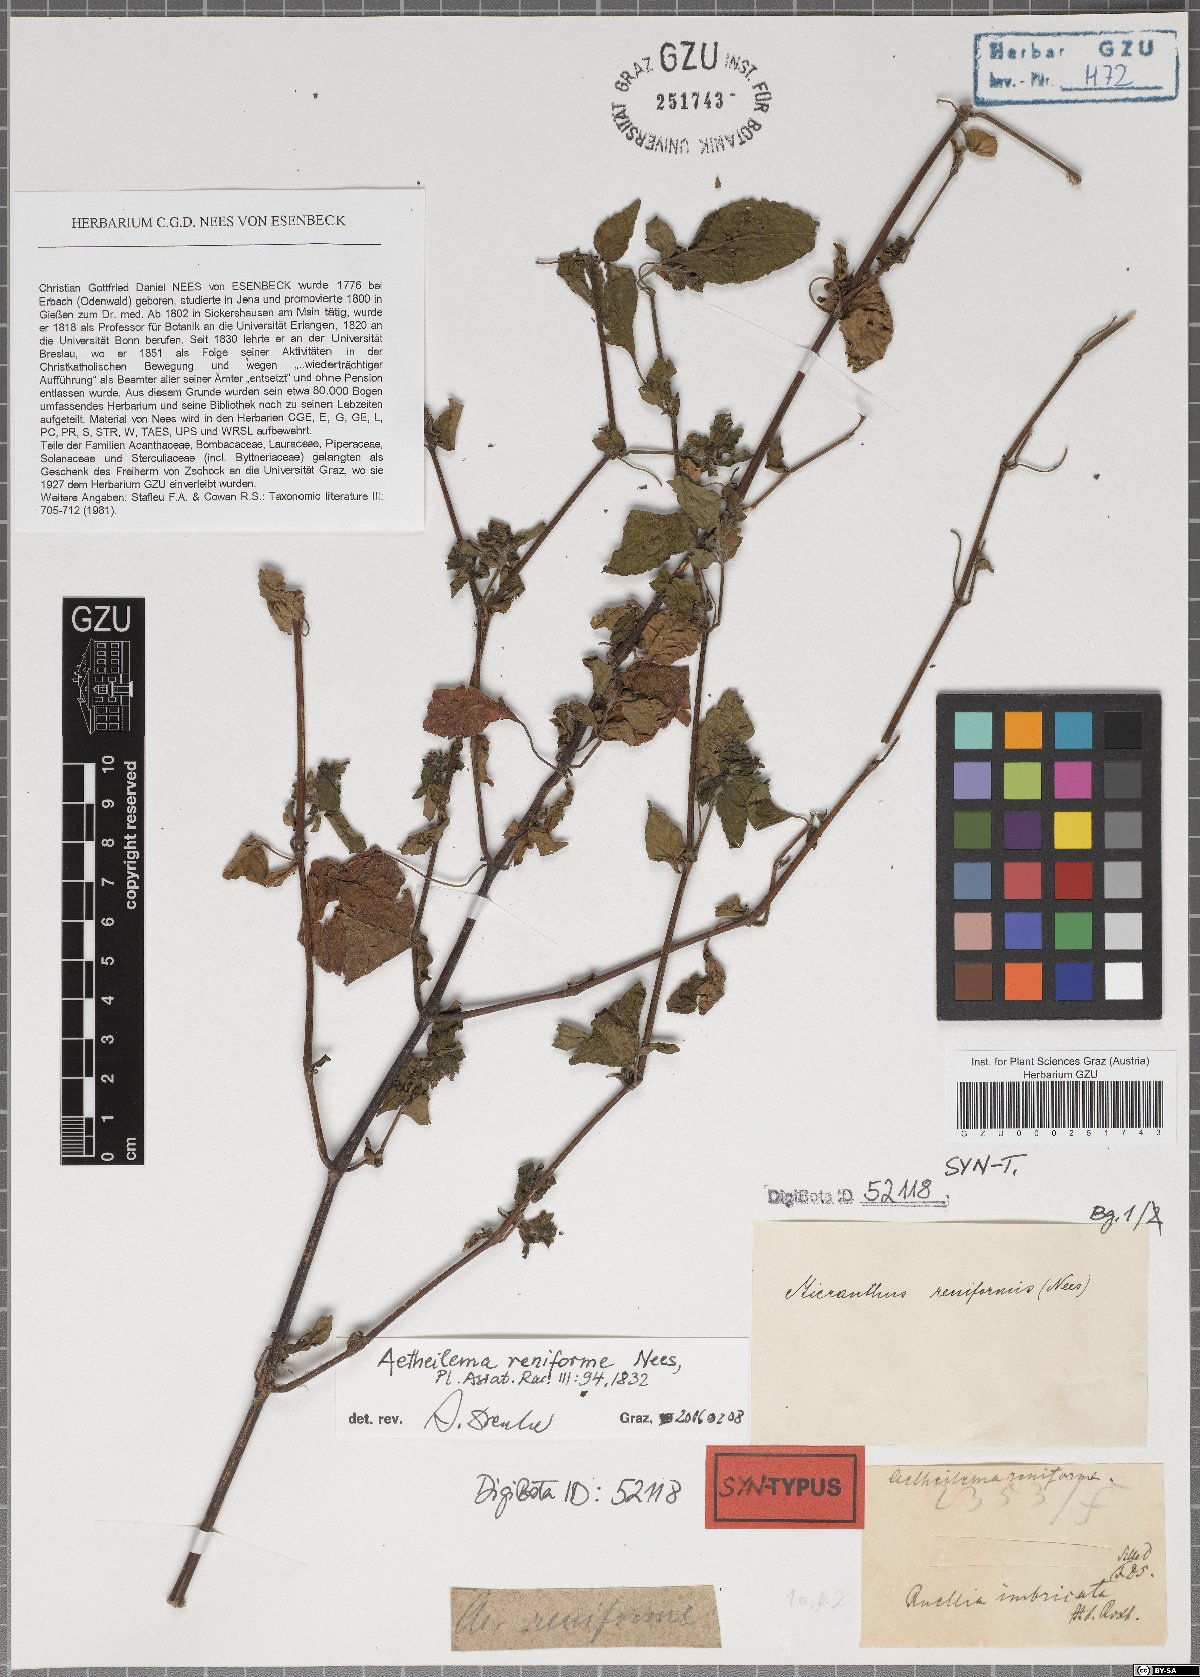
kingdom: Plantae
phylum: Tracheophyta
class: Magnoliopsida
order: Lamiales
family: Acanthaceae
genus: Phaulopsis
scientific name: Phaulopsis dorsiflora
